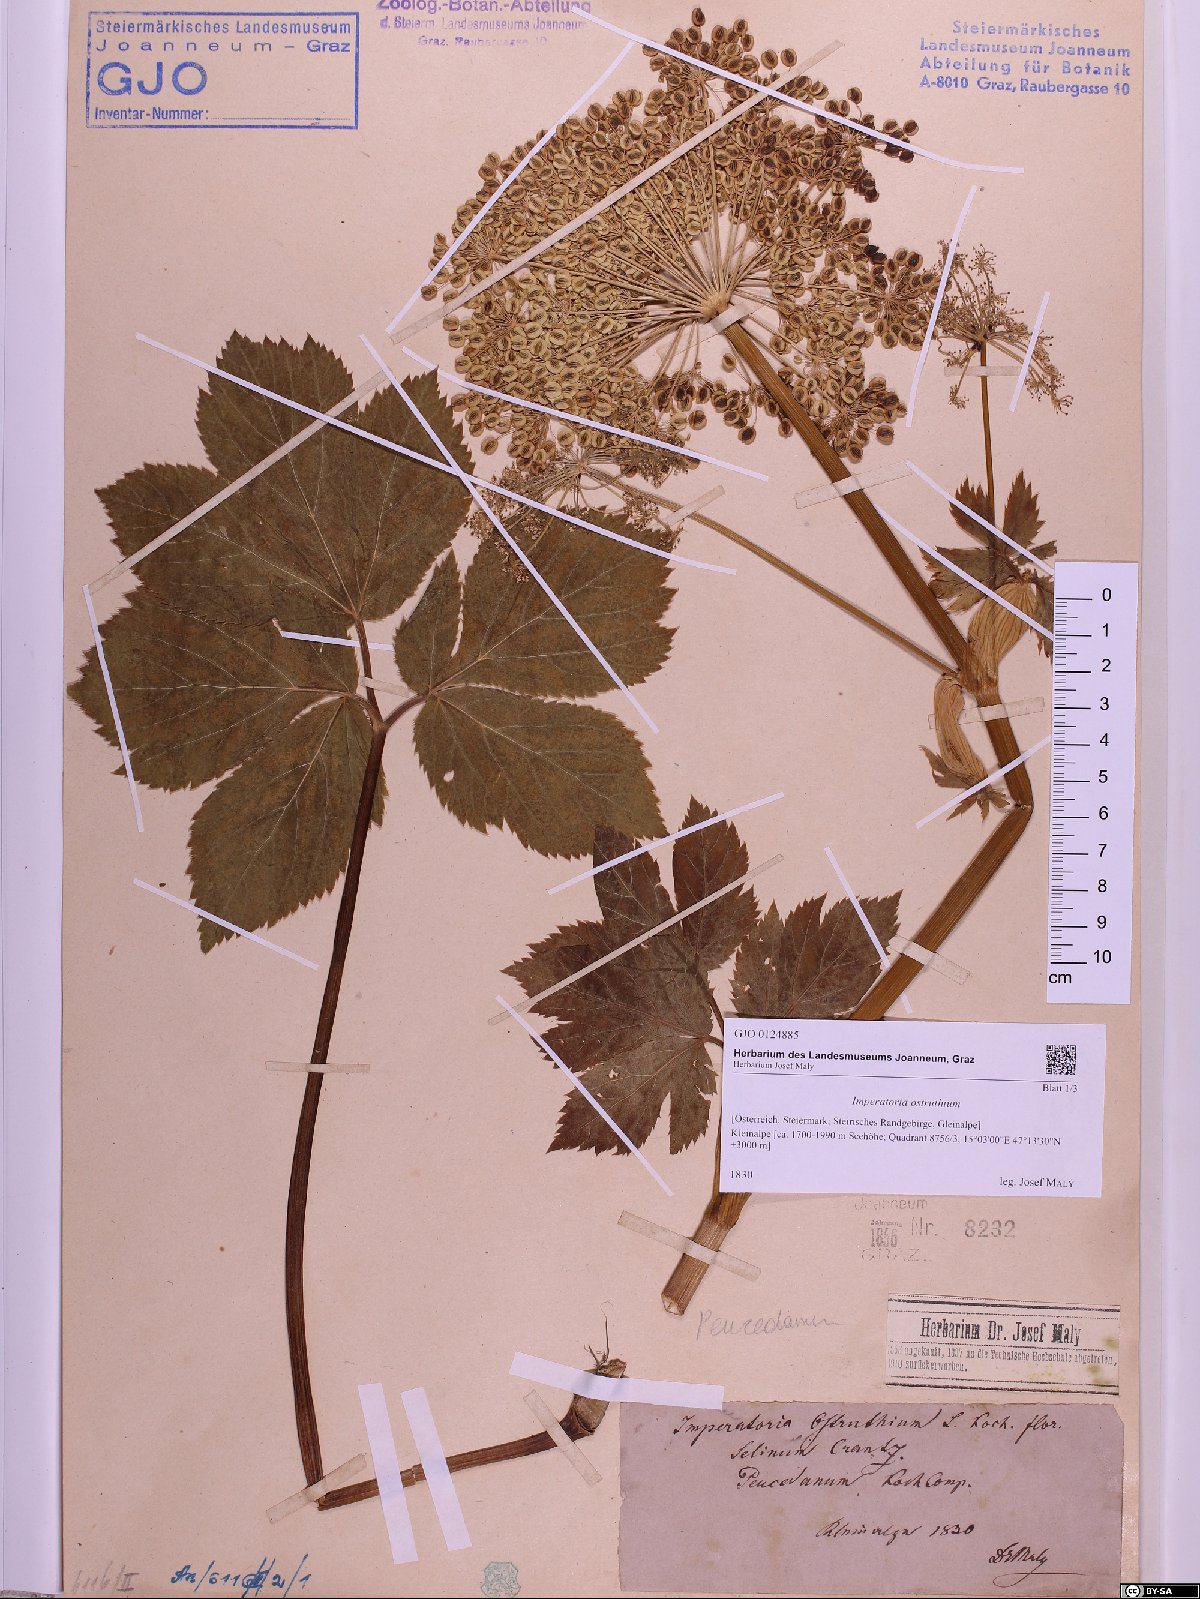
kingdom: Plantae
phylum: Tracheophyta
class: Magnoliopsida
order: Apiales
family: Apiaceae
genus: Imperatoria
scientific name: Imperatoria ostruthium
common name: Masterwort
